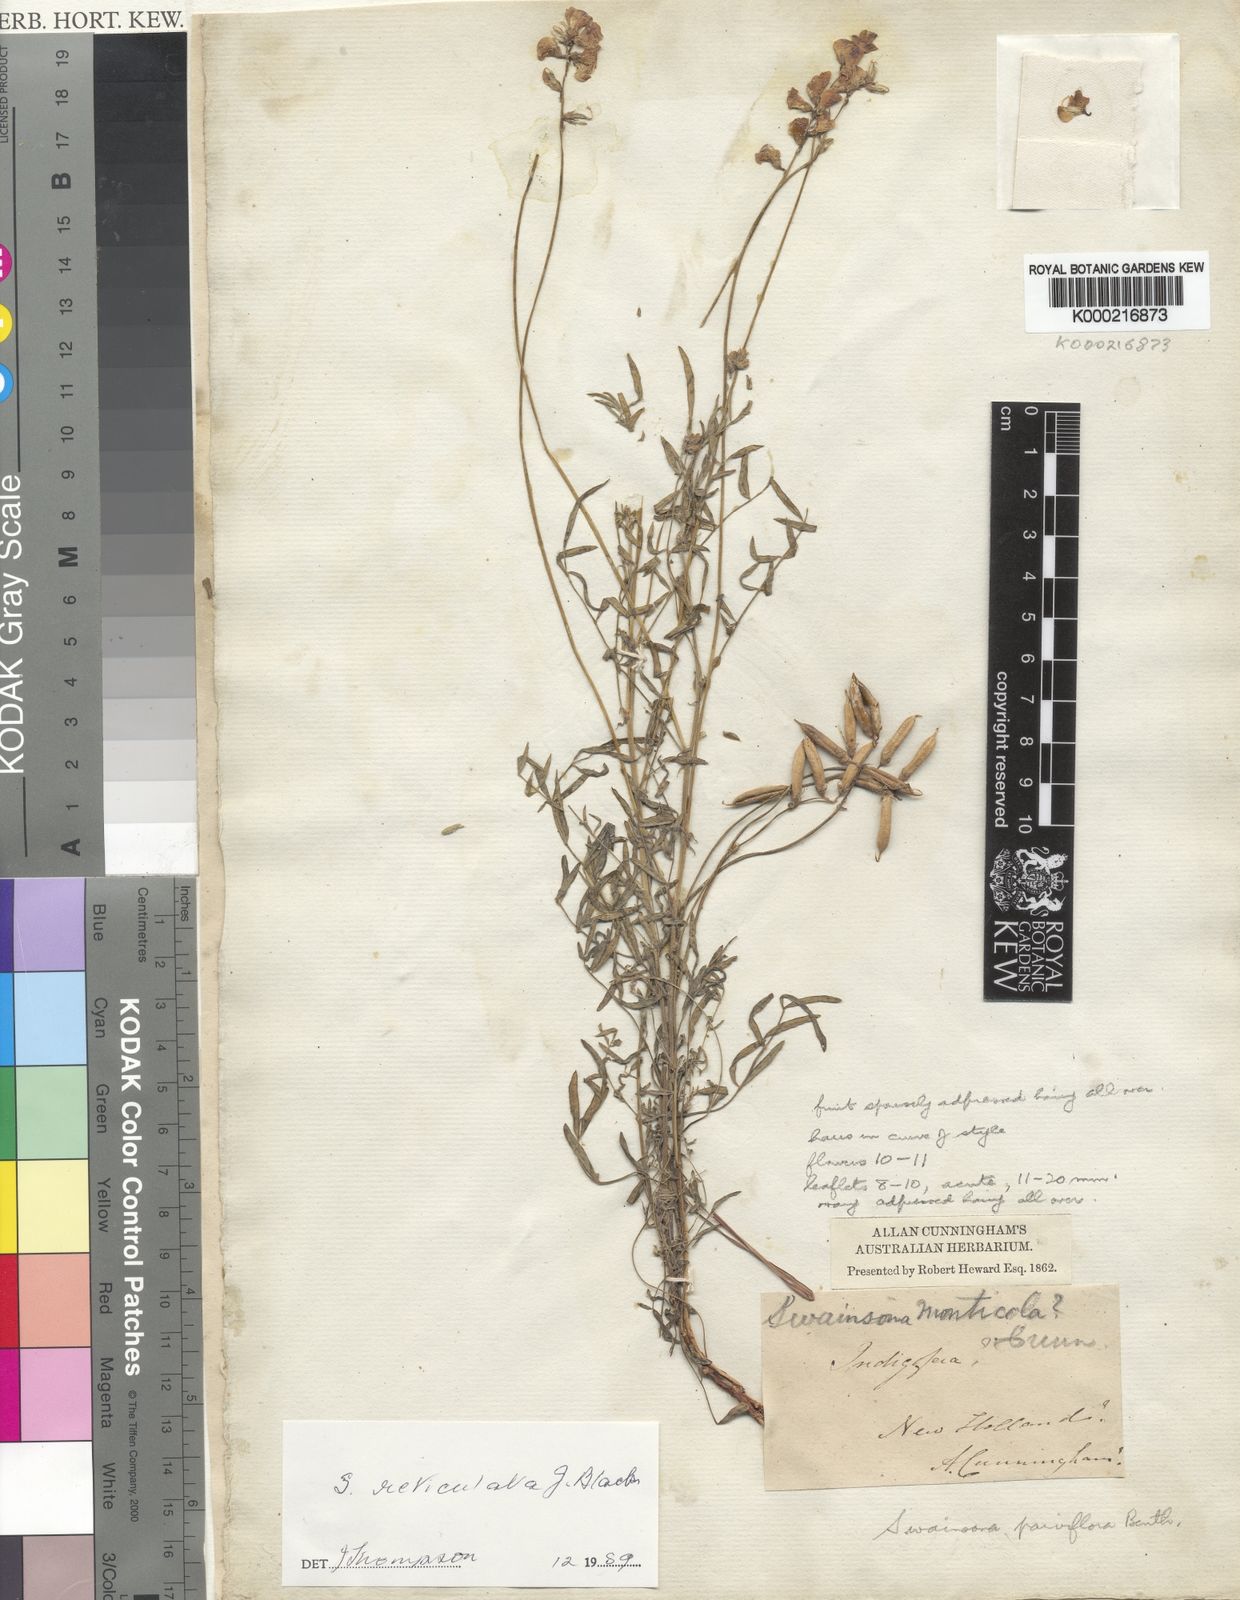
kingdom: Plantae
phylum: Tracheophyta
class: Magnoliopsida
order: Fabales
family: Fabaceae
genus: Swainsona
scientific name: Swainsona reticulata
